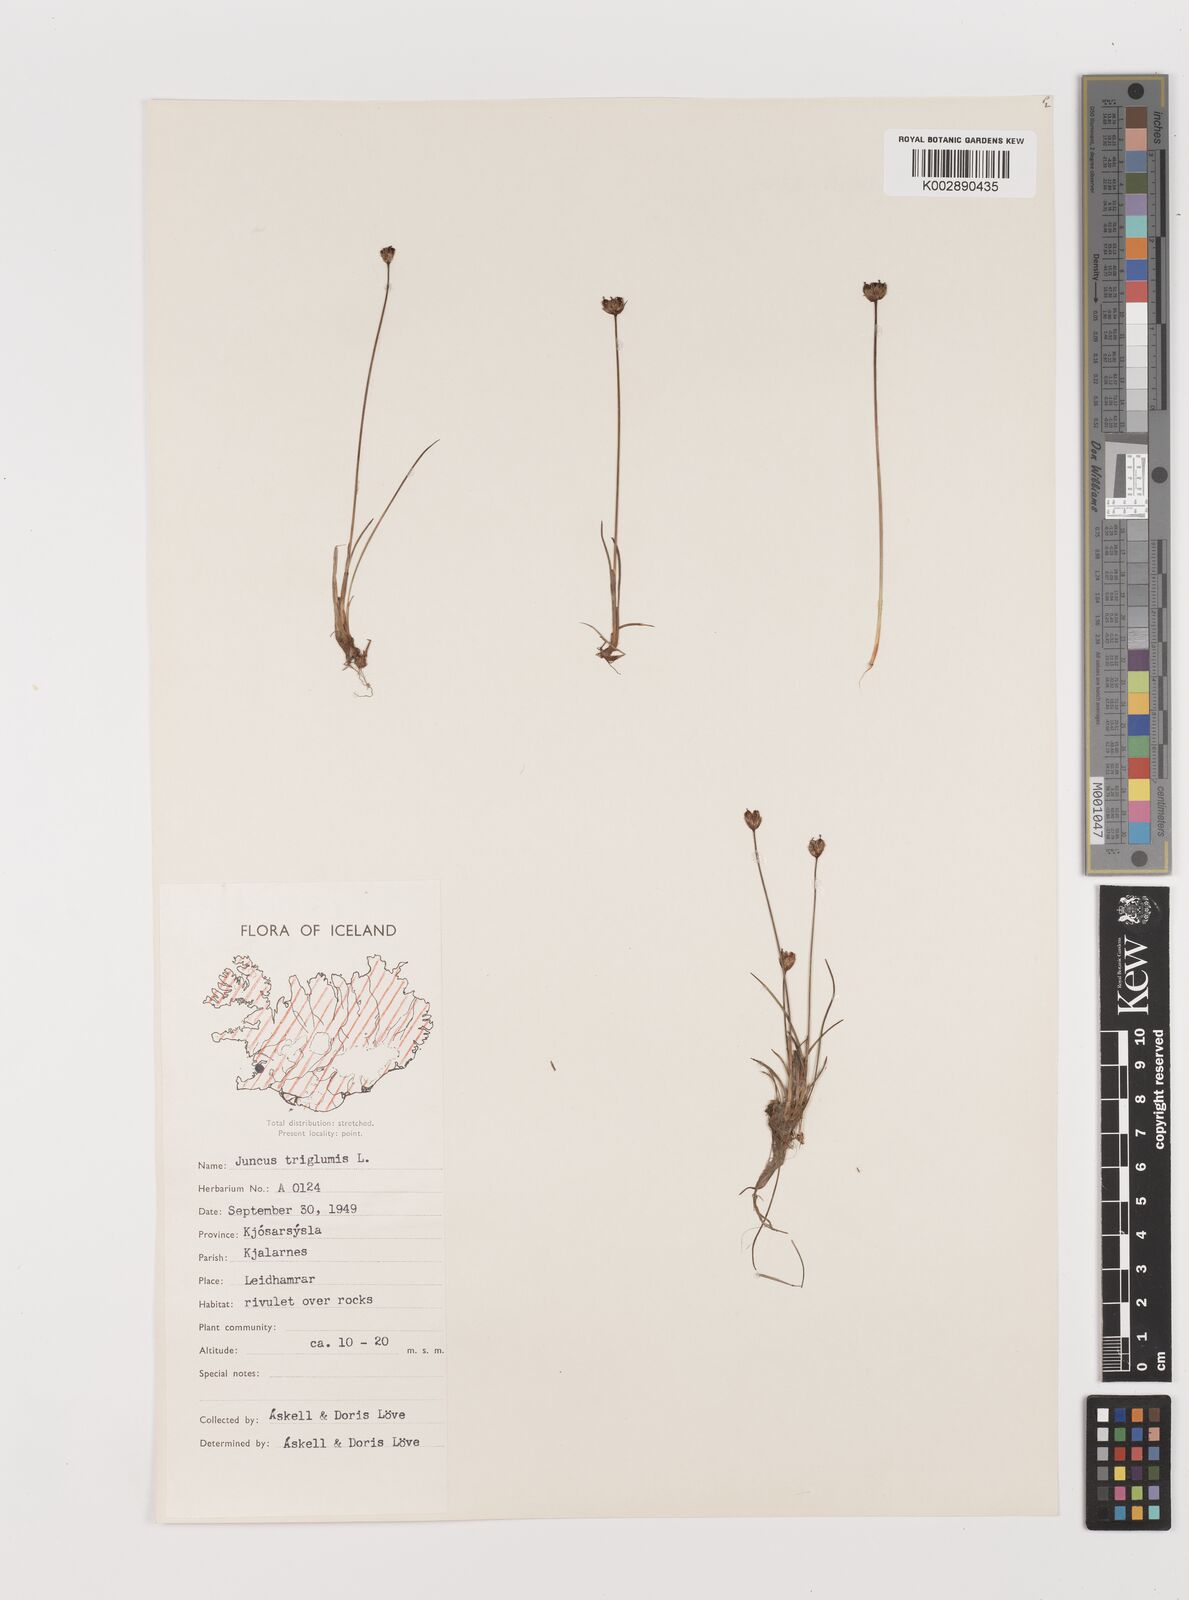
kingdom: Plantae
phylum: Tracheophyta
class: Liliopsida
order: Poales
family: Juncaceae
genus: Juncus
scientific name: Juncus triglumis
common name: Three-flowered rush
